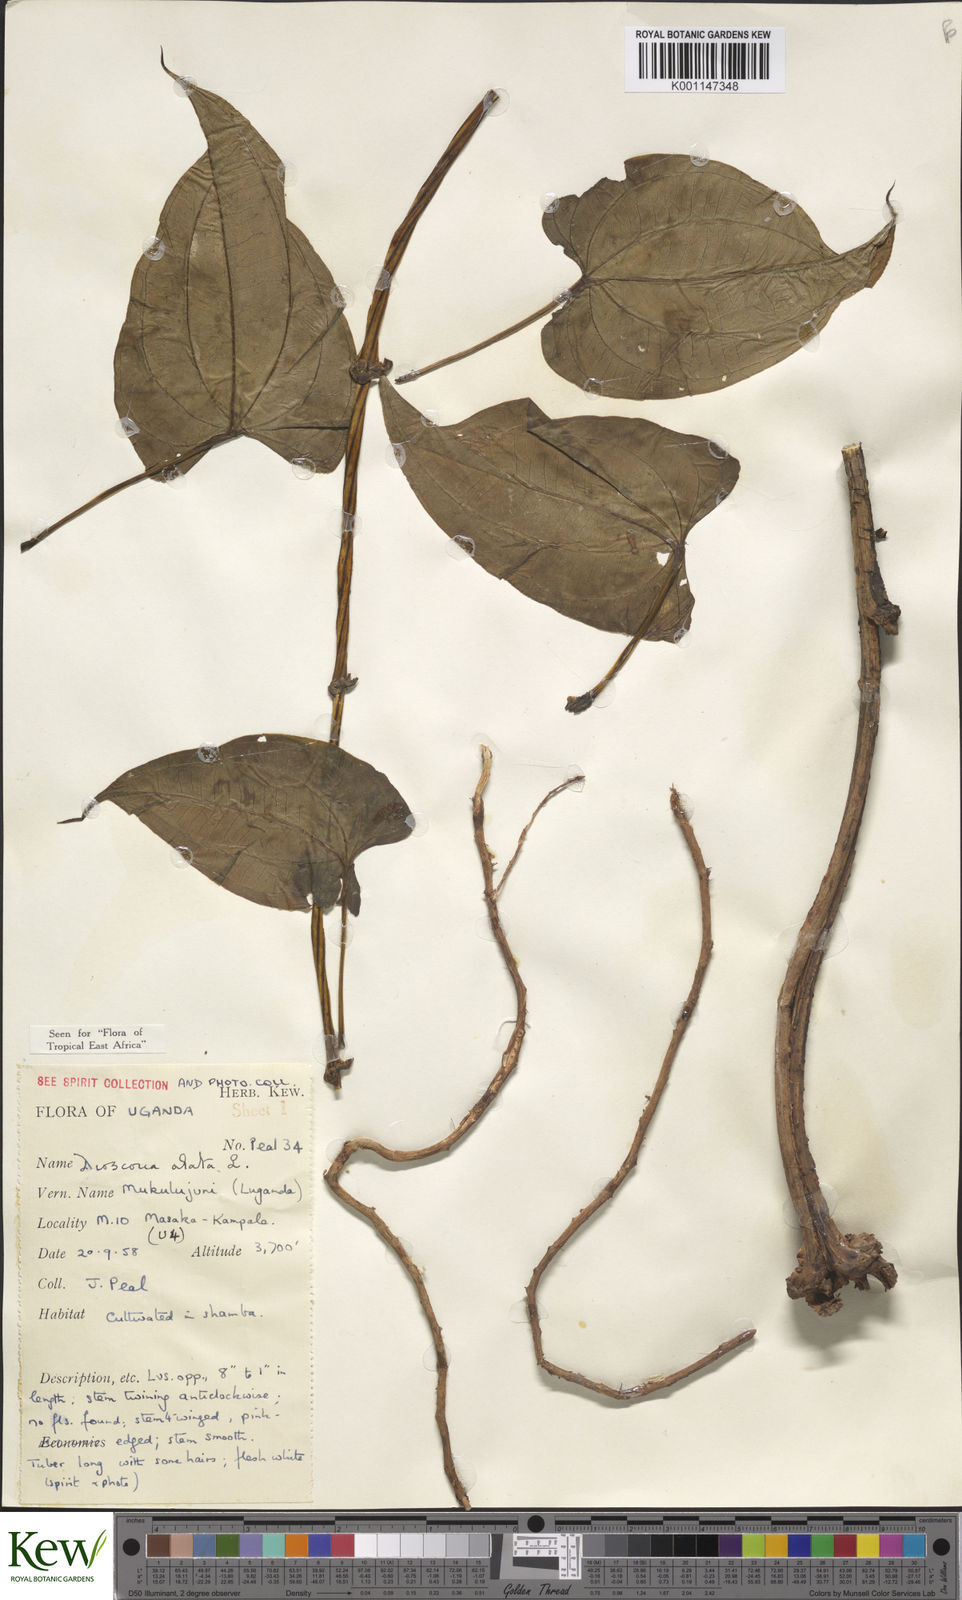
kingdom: Plantae
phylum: Tracheophyta
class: Liliopsida
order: Dioscoreales
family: Dioscoreaceae
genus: Dioscorea
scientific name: Dioscorea alata
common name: Water yam
